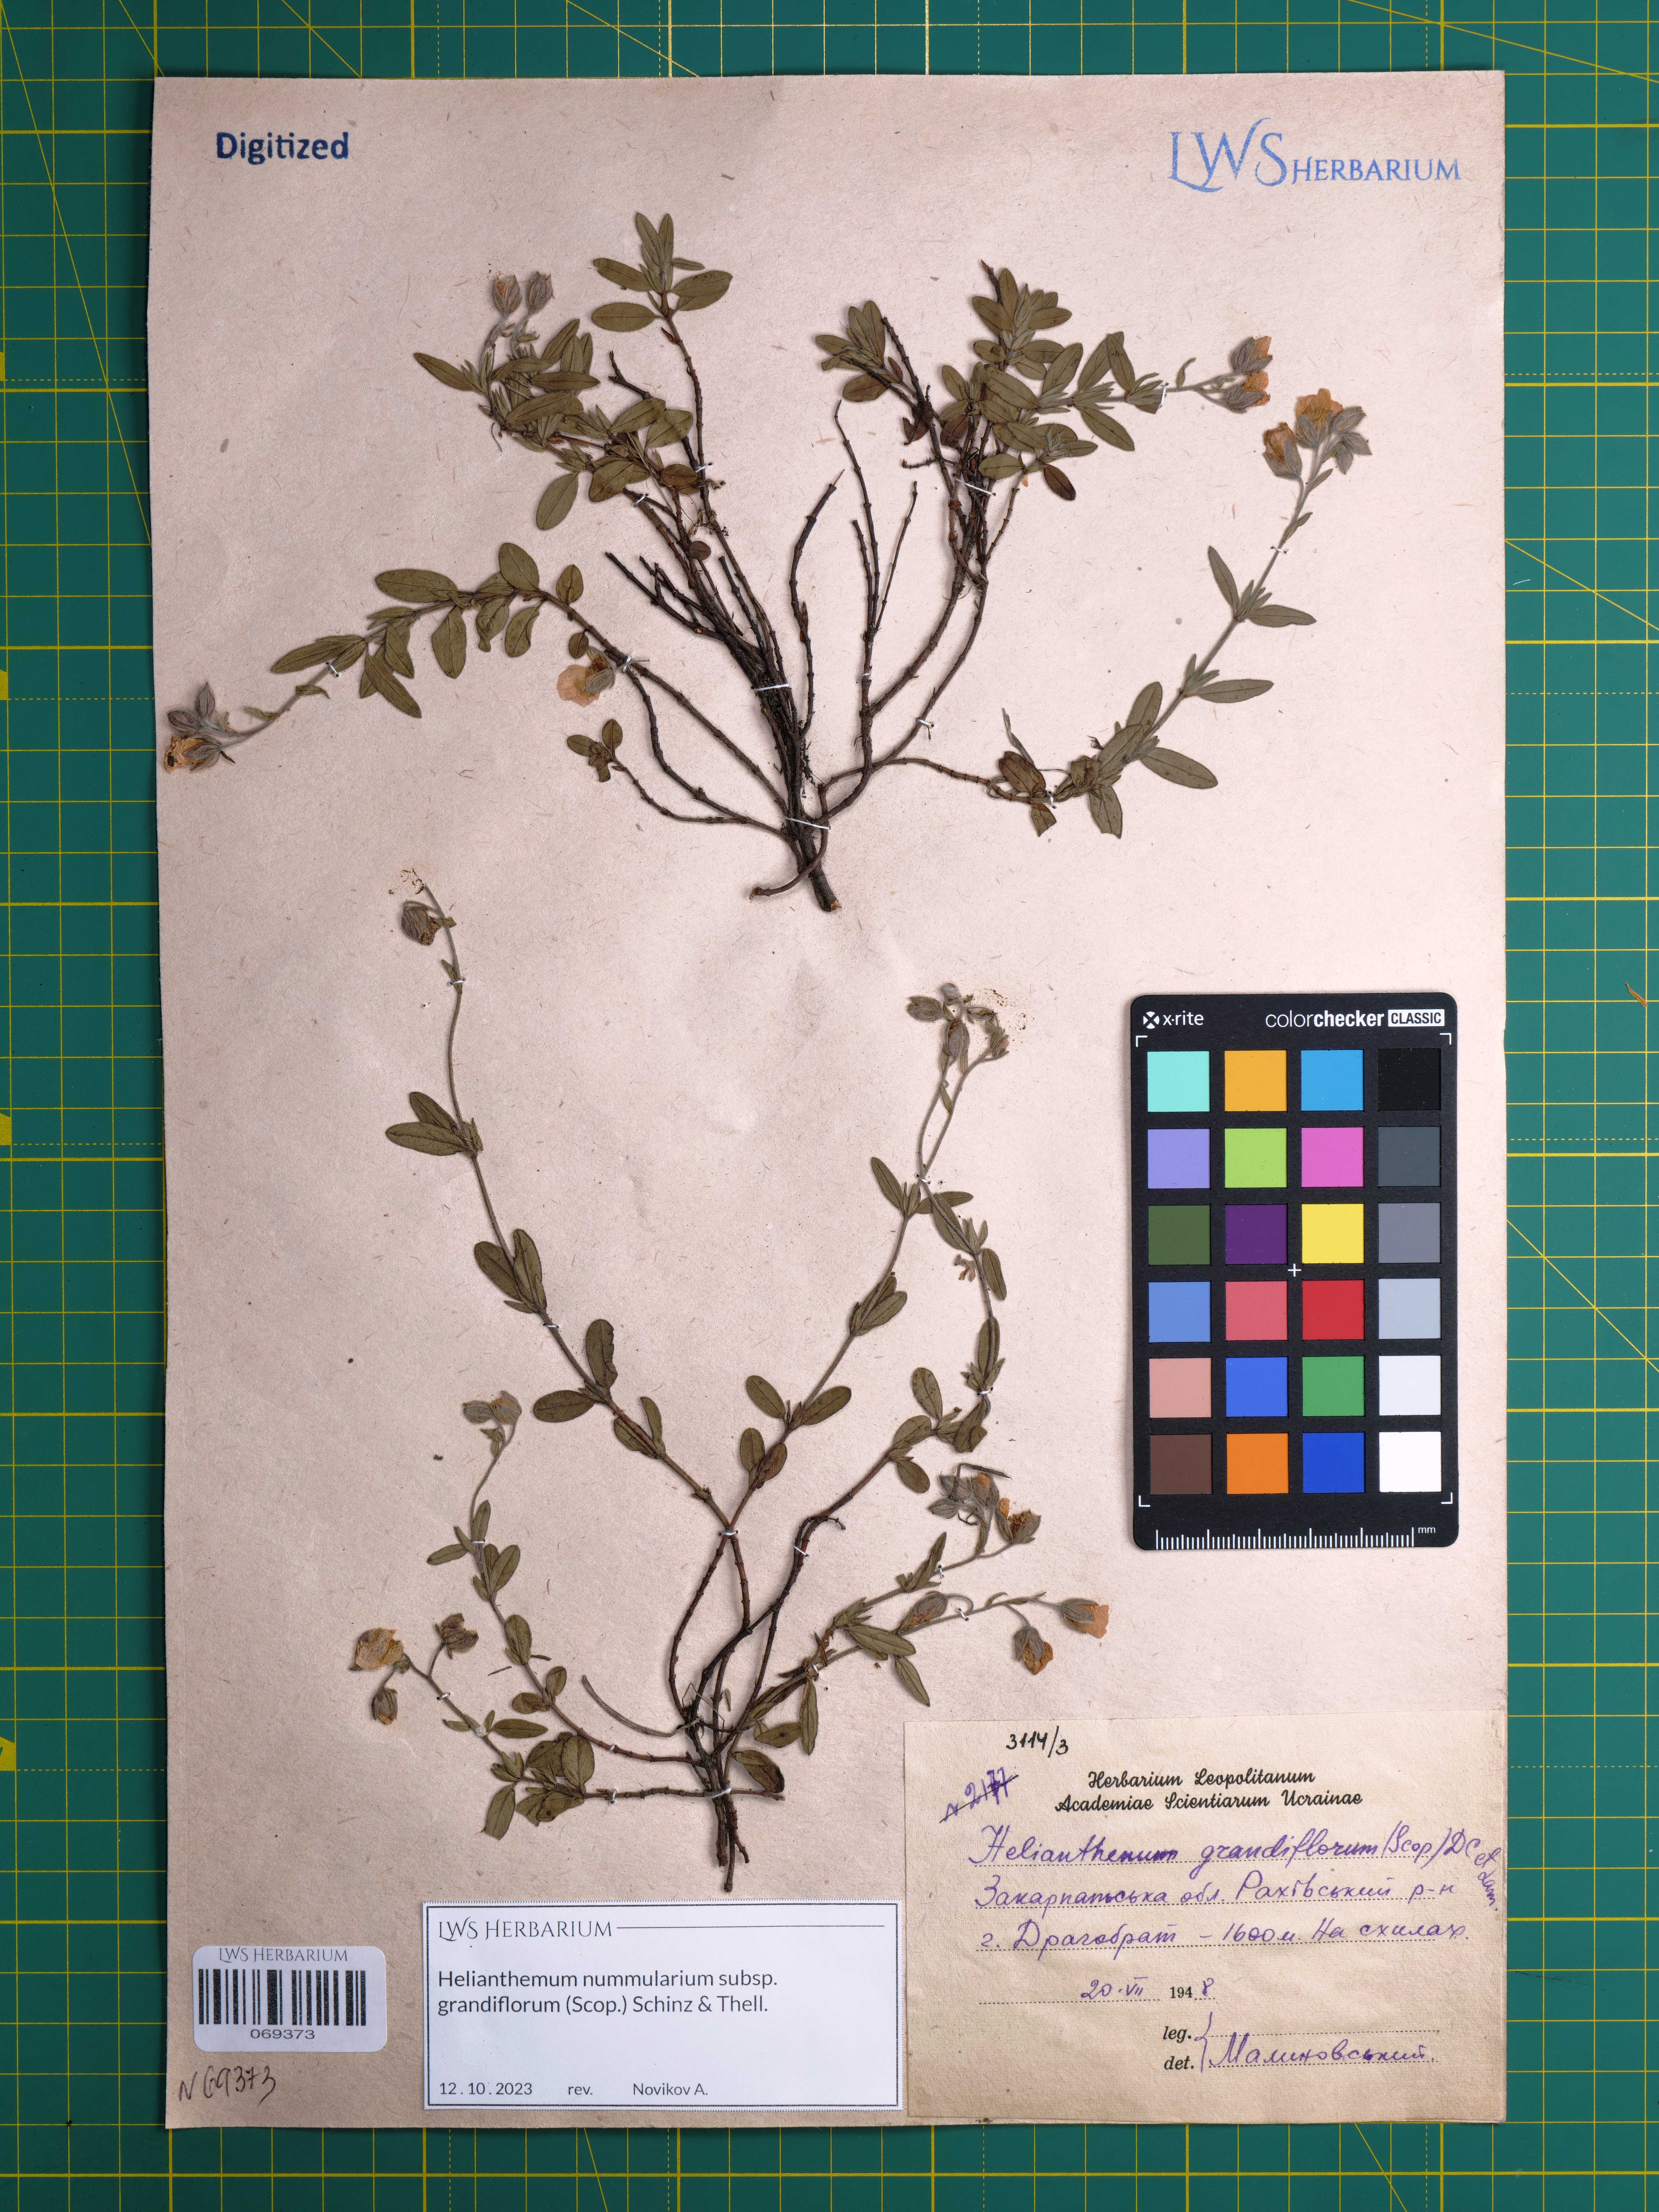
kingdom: Plantae
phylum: Tracheophyta
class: Magnoliopsida
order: Malvales
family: Cistaceae
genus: Helianthemum
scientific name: Helianthemum nummularium
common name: Common rock-rose
